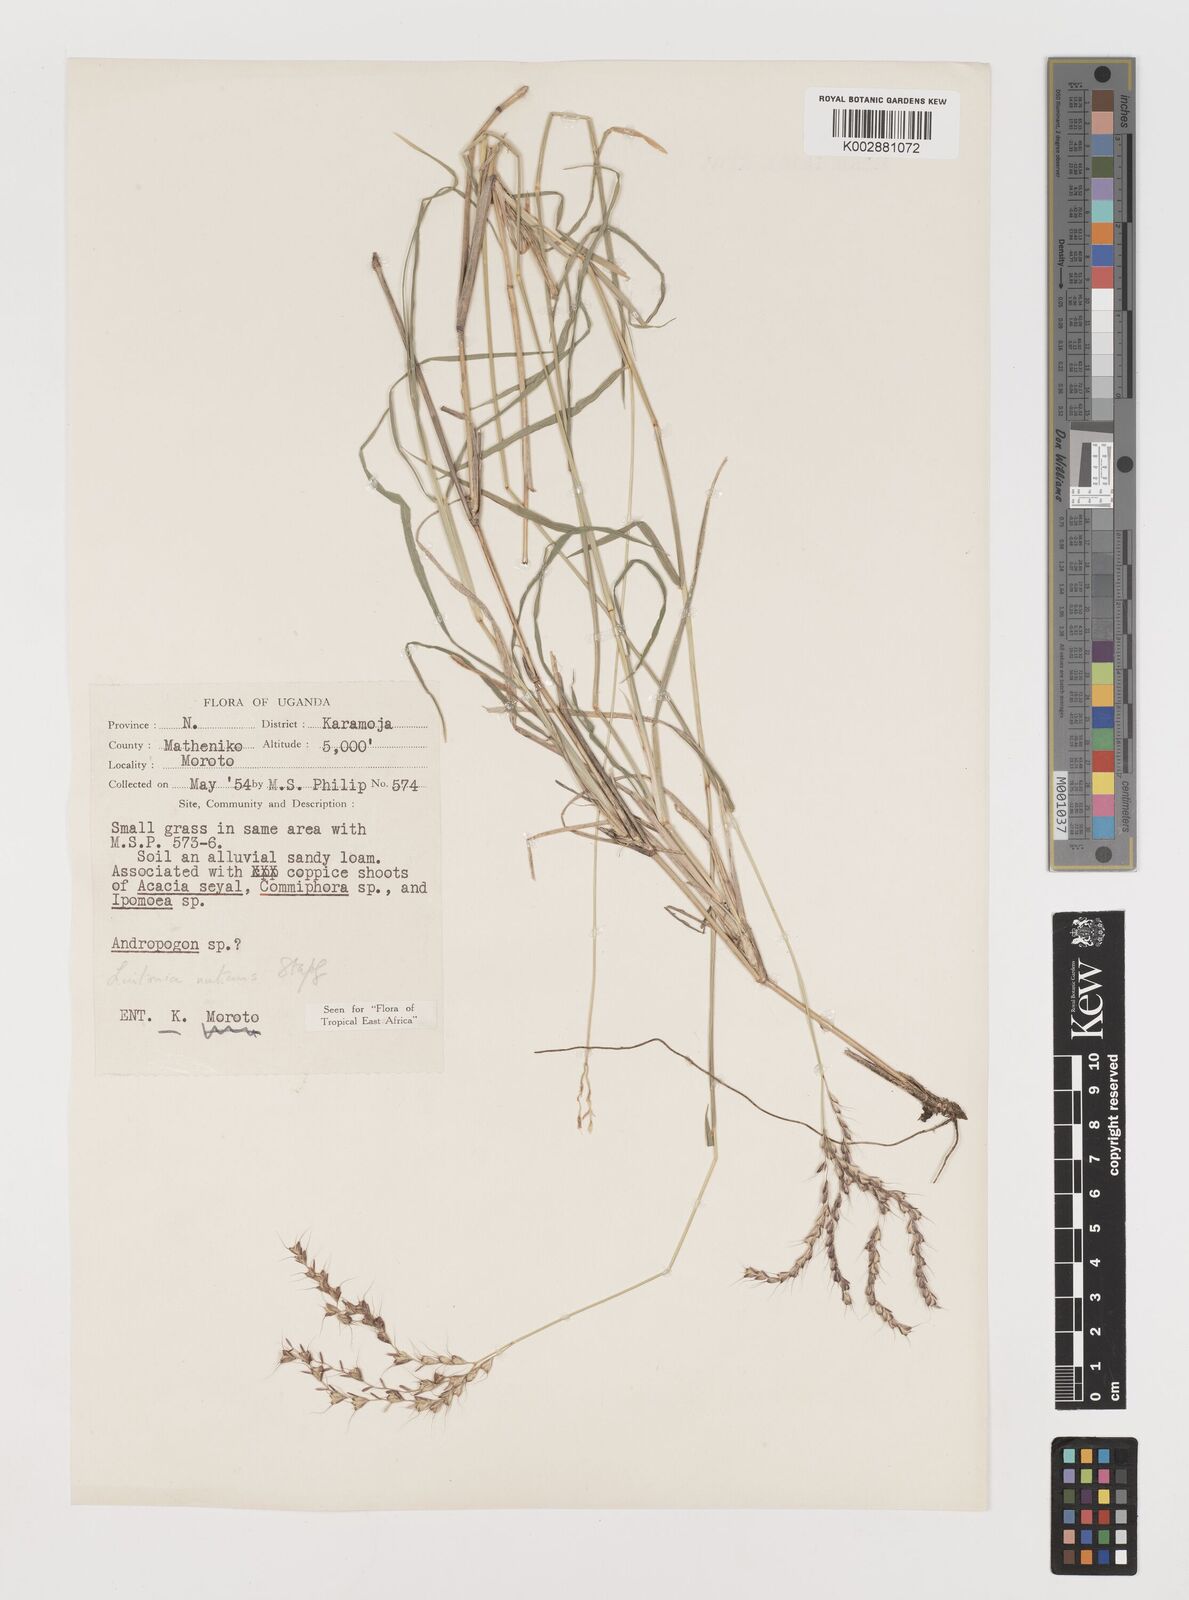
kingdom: Plantae
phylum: Tracheophyta
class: Liliopsida
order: Poales
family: Poaceae
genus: Chloris
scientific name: Chloris nutans
